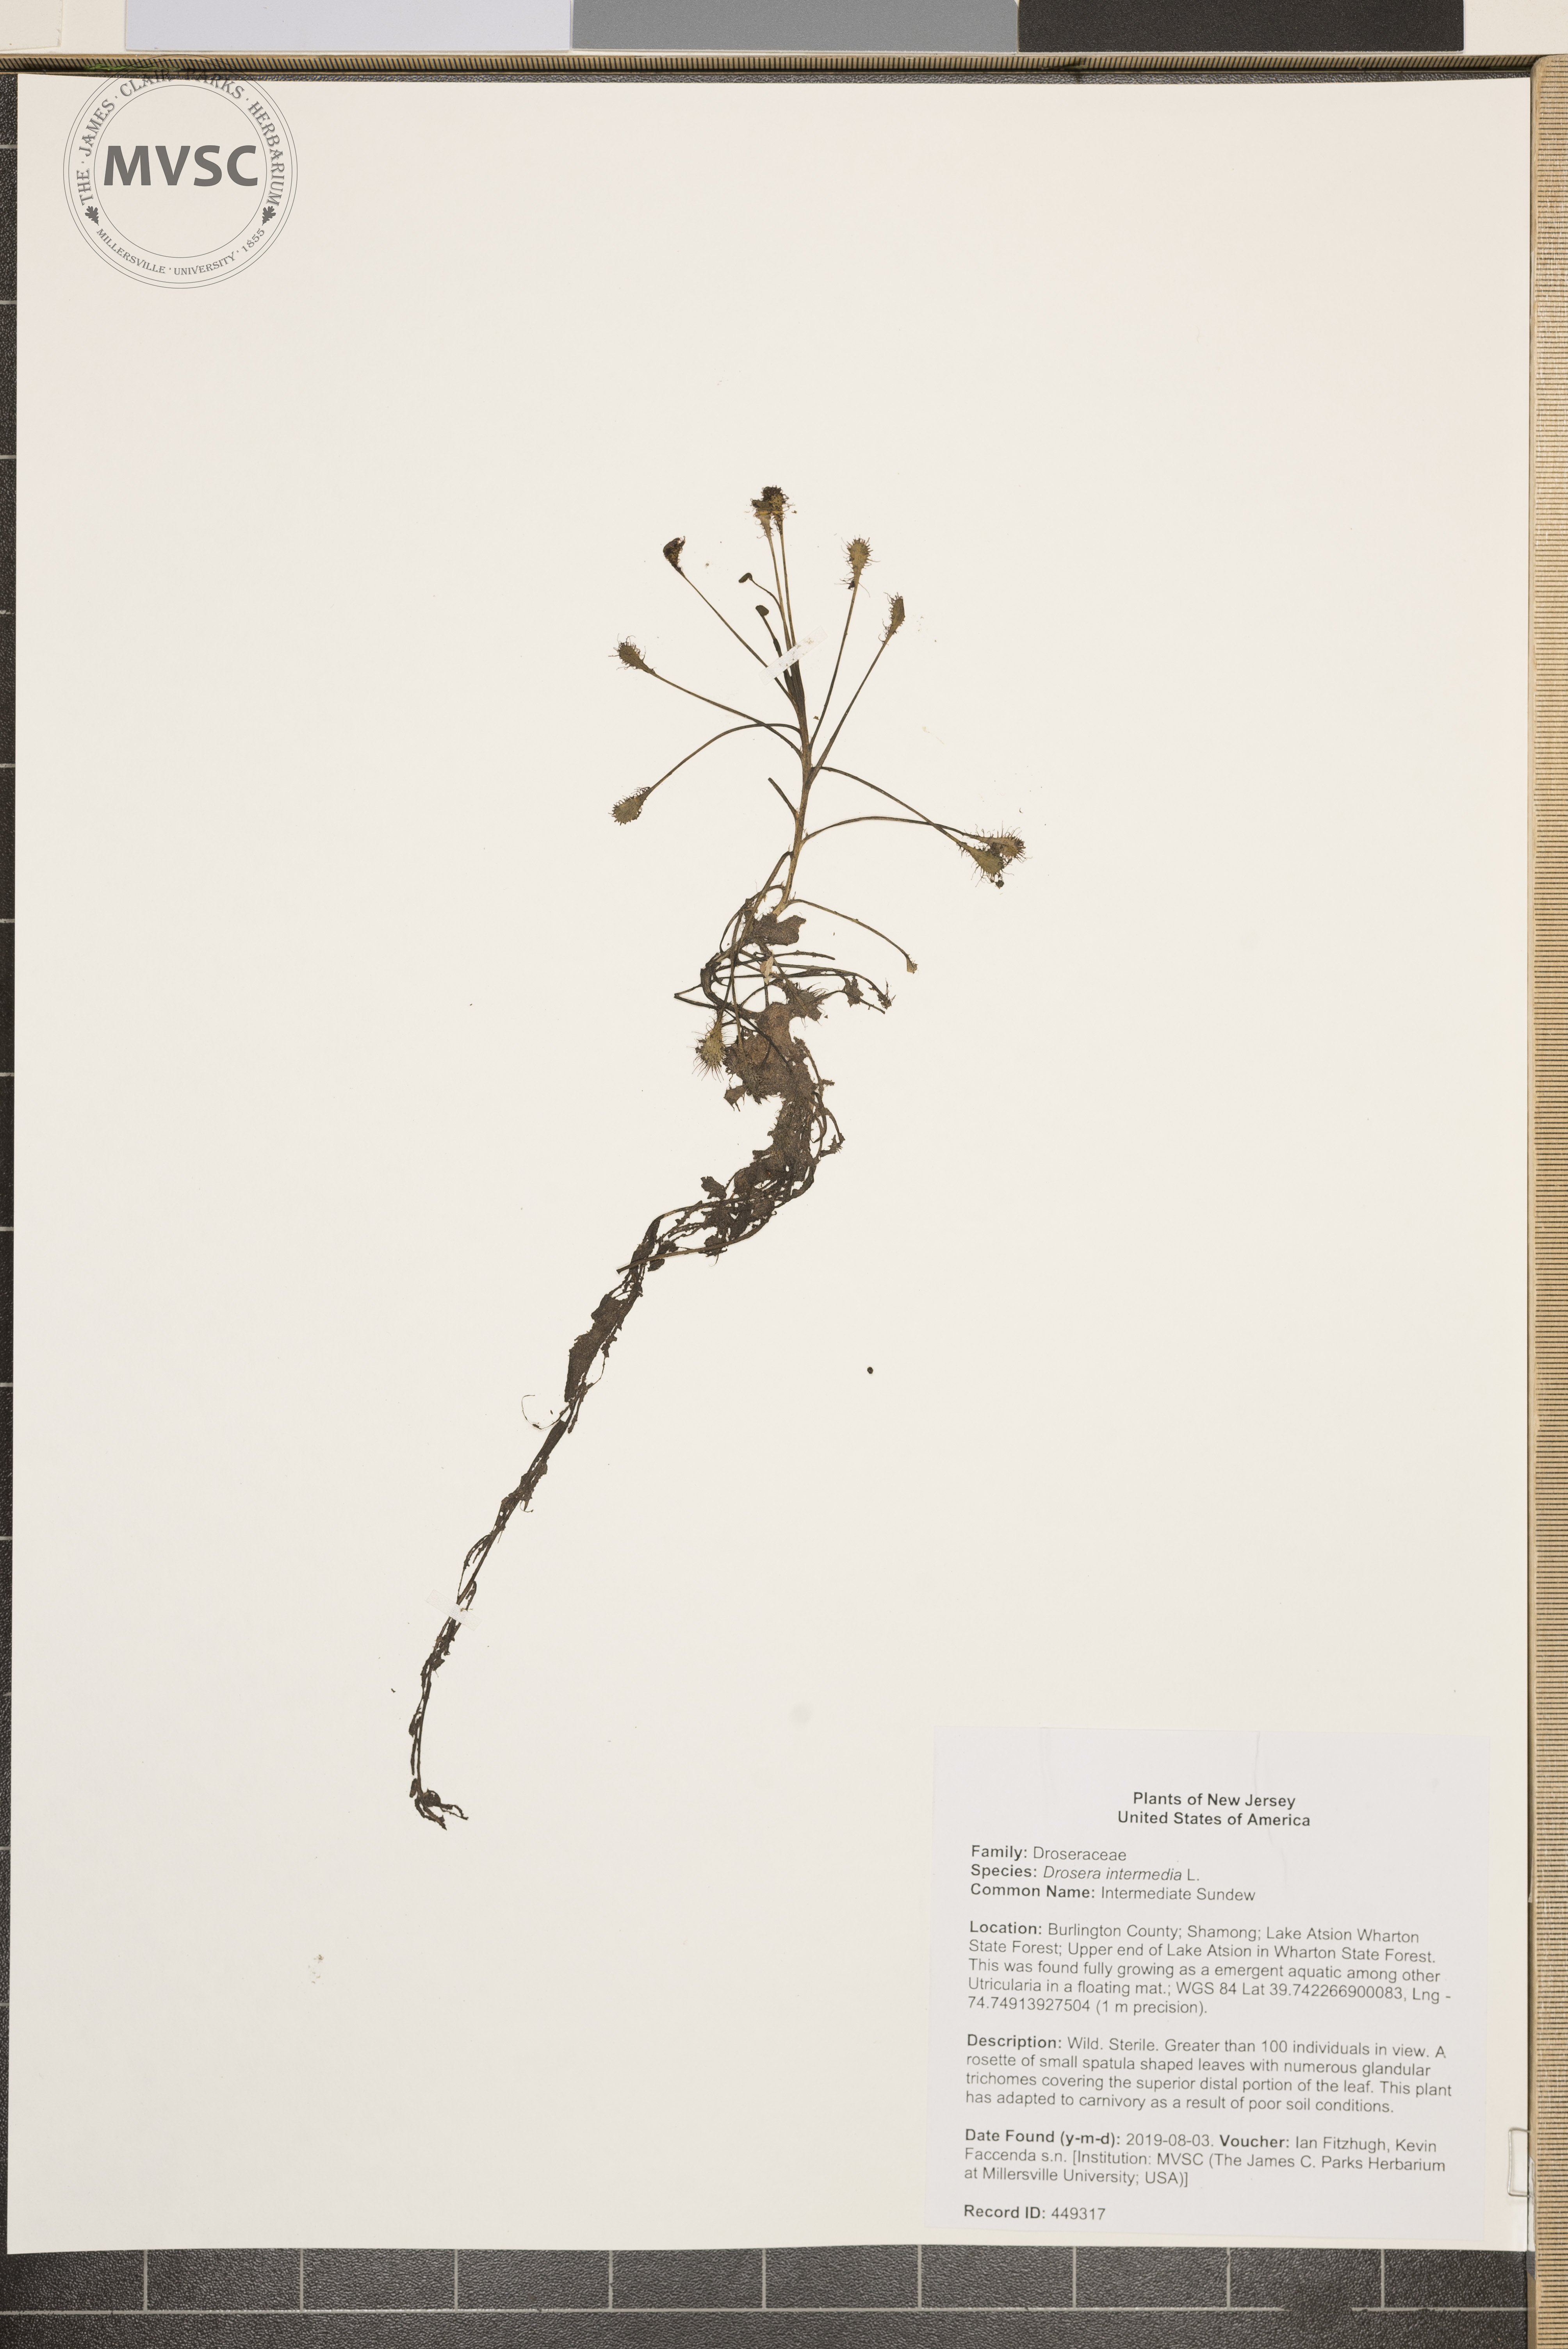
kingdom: Plantae
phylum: Tracheophyta
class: Magnoliopsida
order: Caryophyllales
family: Droseraceae
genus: Drosera
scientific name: Drosera intermedia
